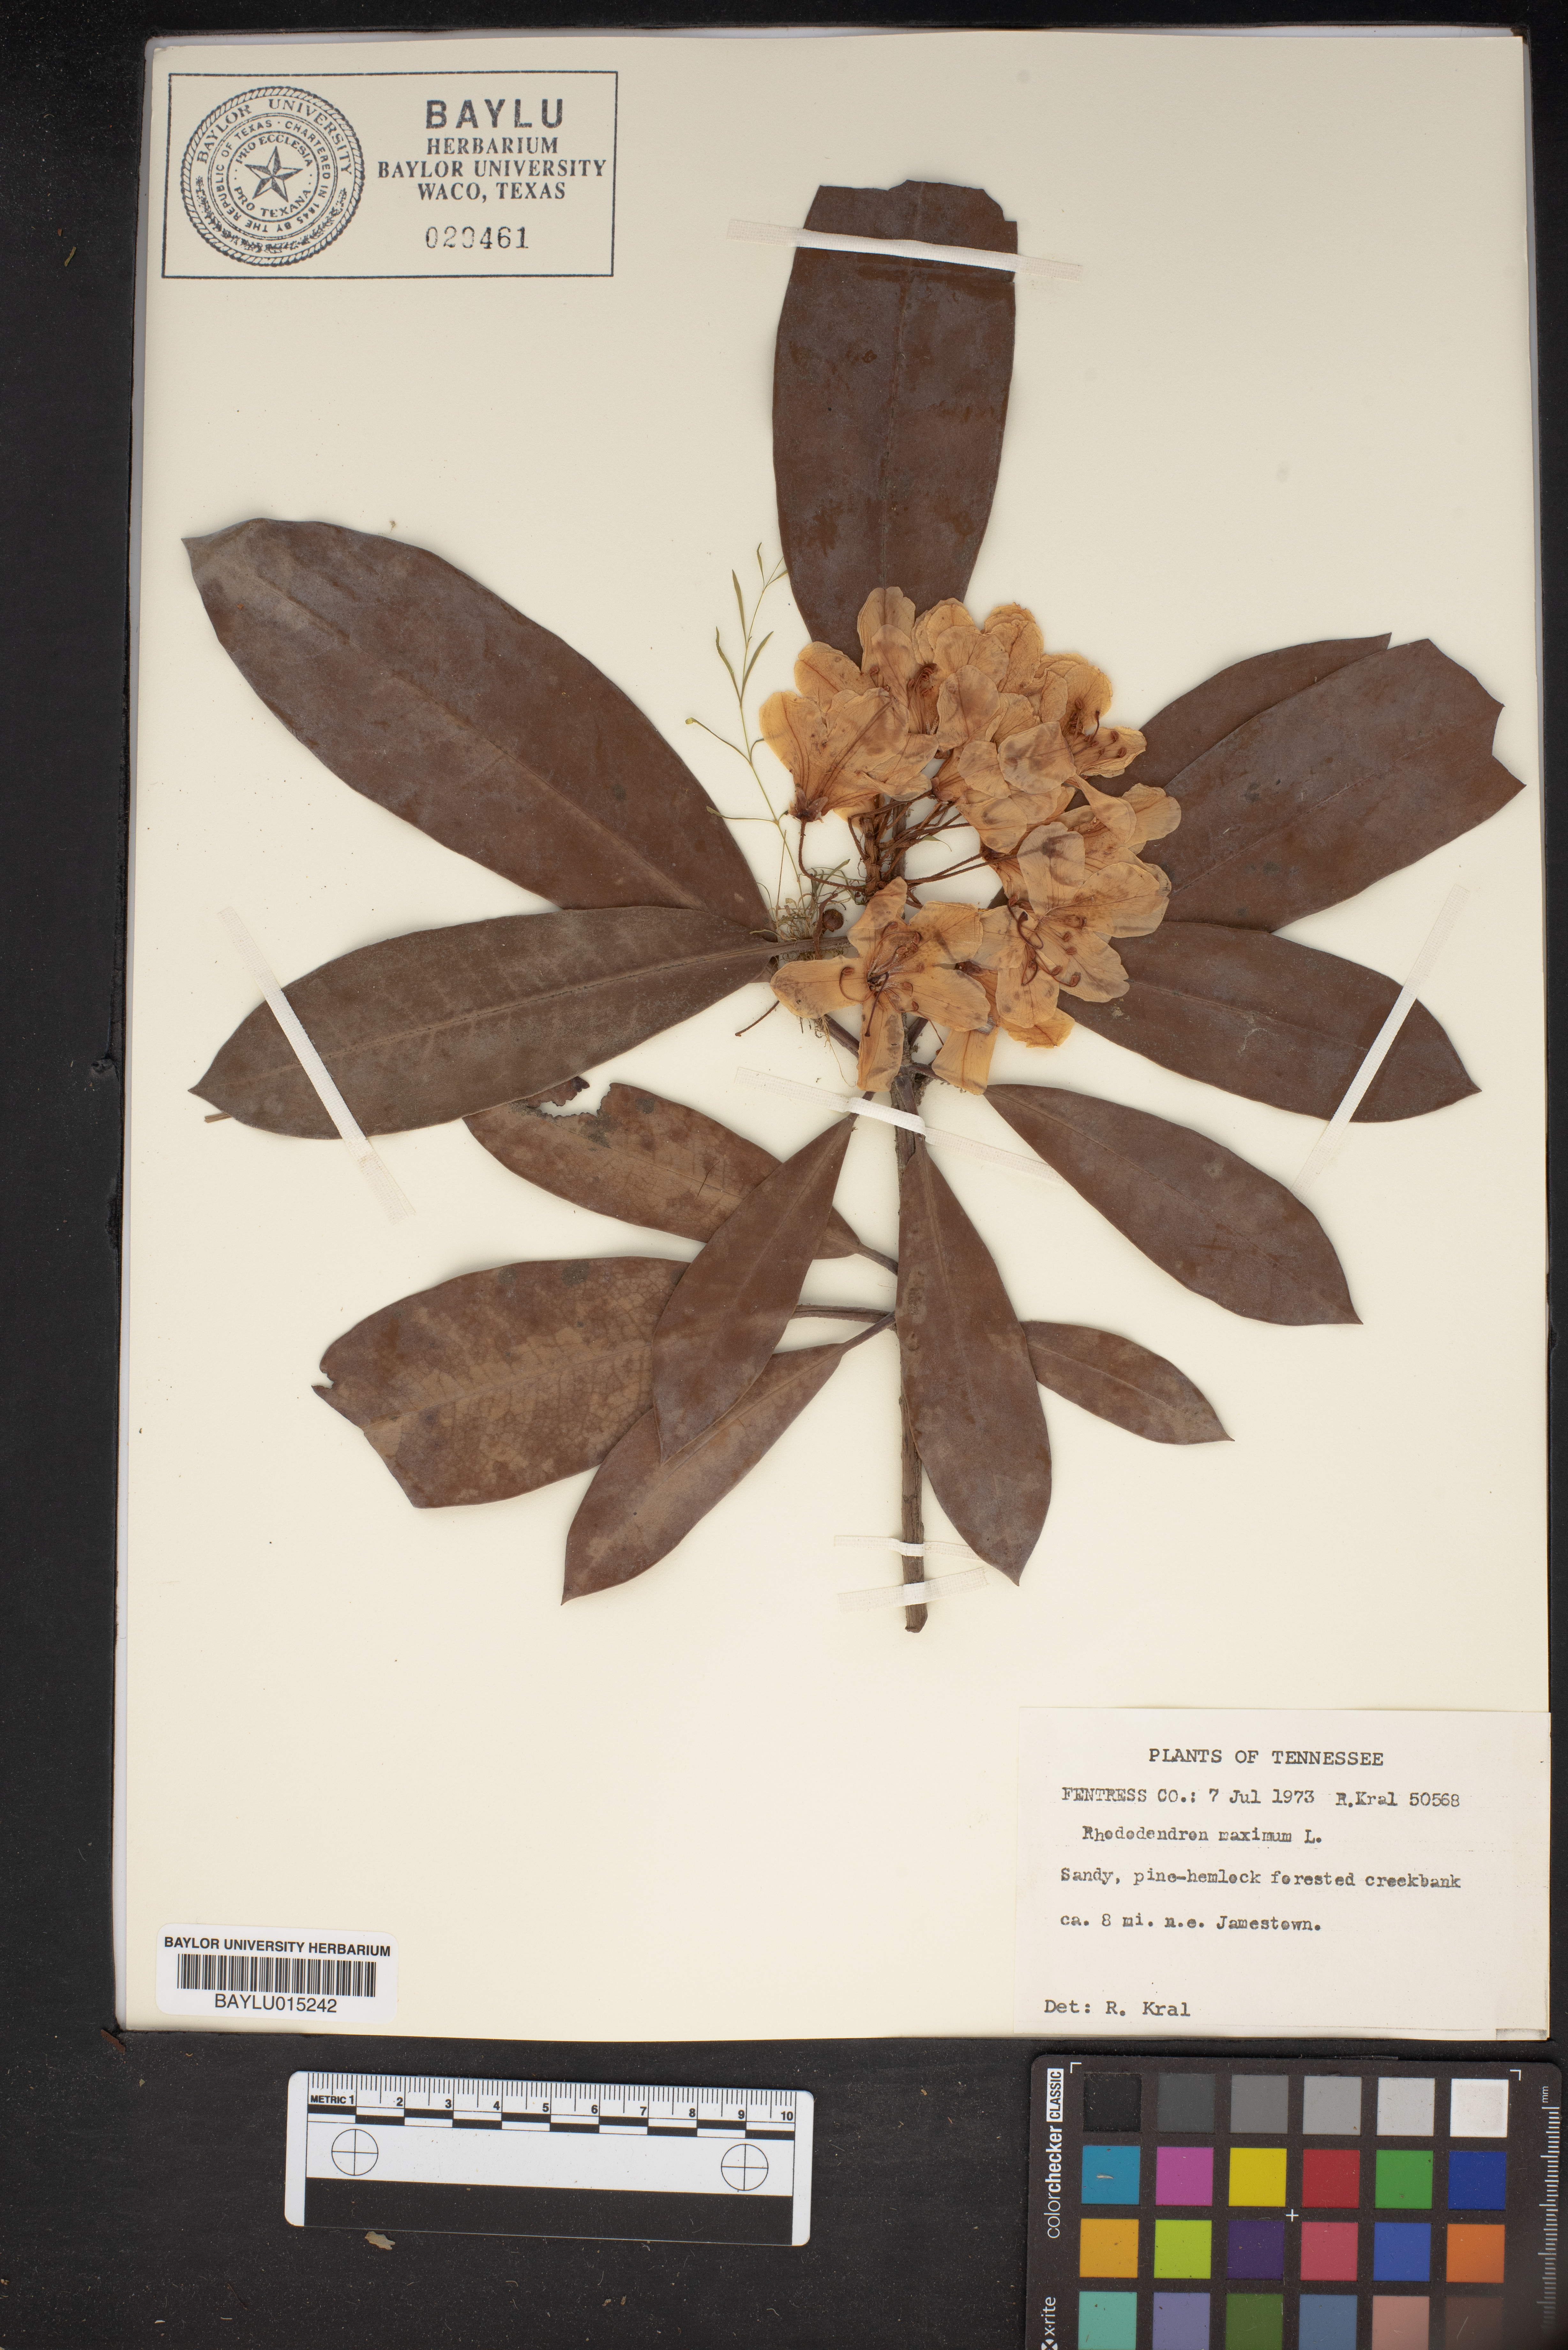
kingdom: Plantae
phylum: Tracheophyta
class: Magnoliopsida
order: Ericales
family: Ericaceae
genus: Rhododendron
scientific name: Rhododendron maximum
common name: Great rhododendron
